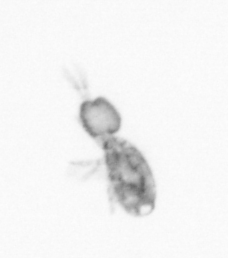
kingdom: Animalia
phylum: Arthropoda
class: Copepoda
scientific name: Copepoda
